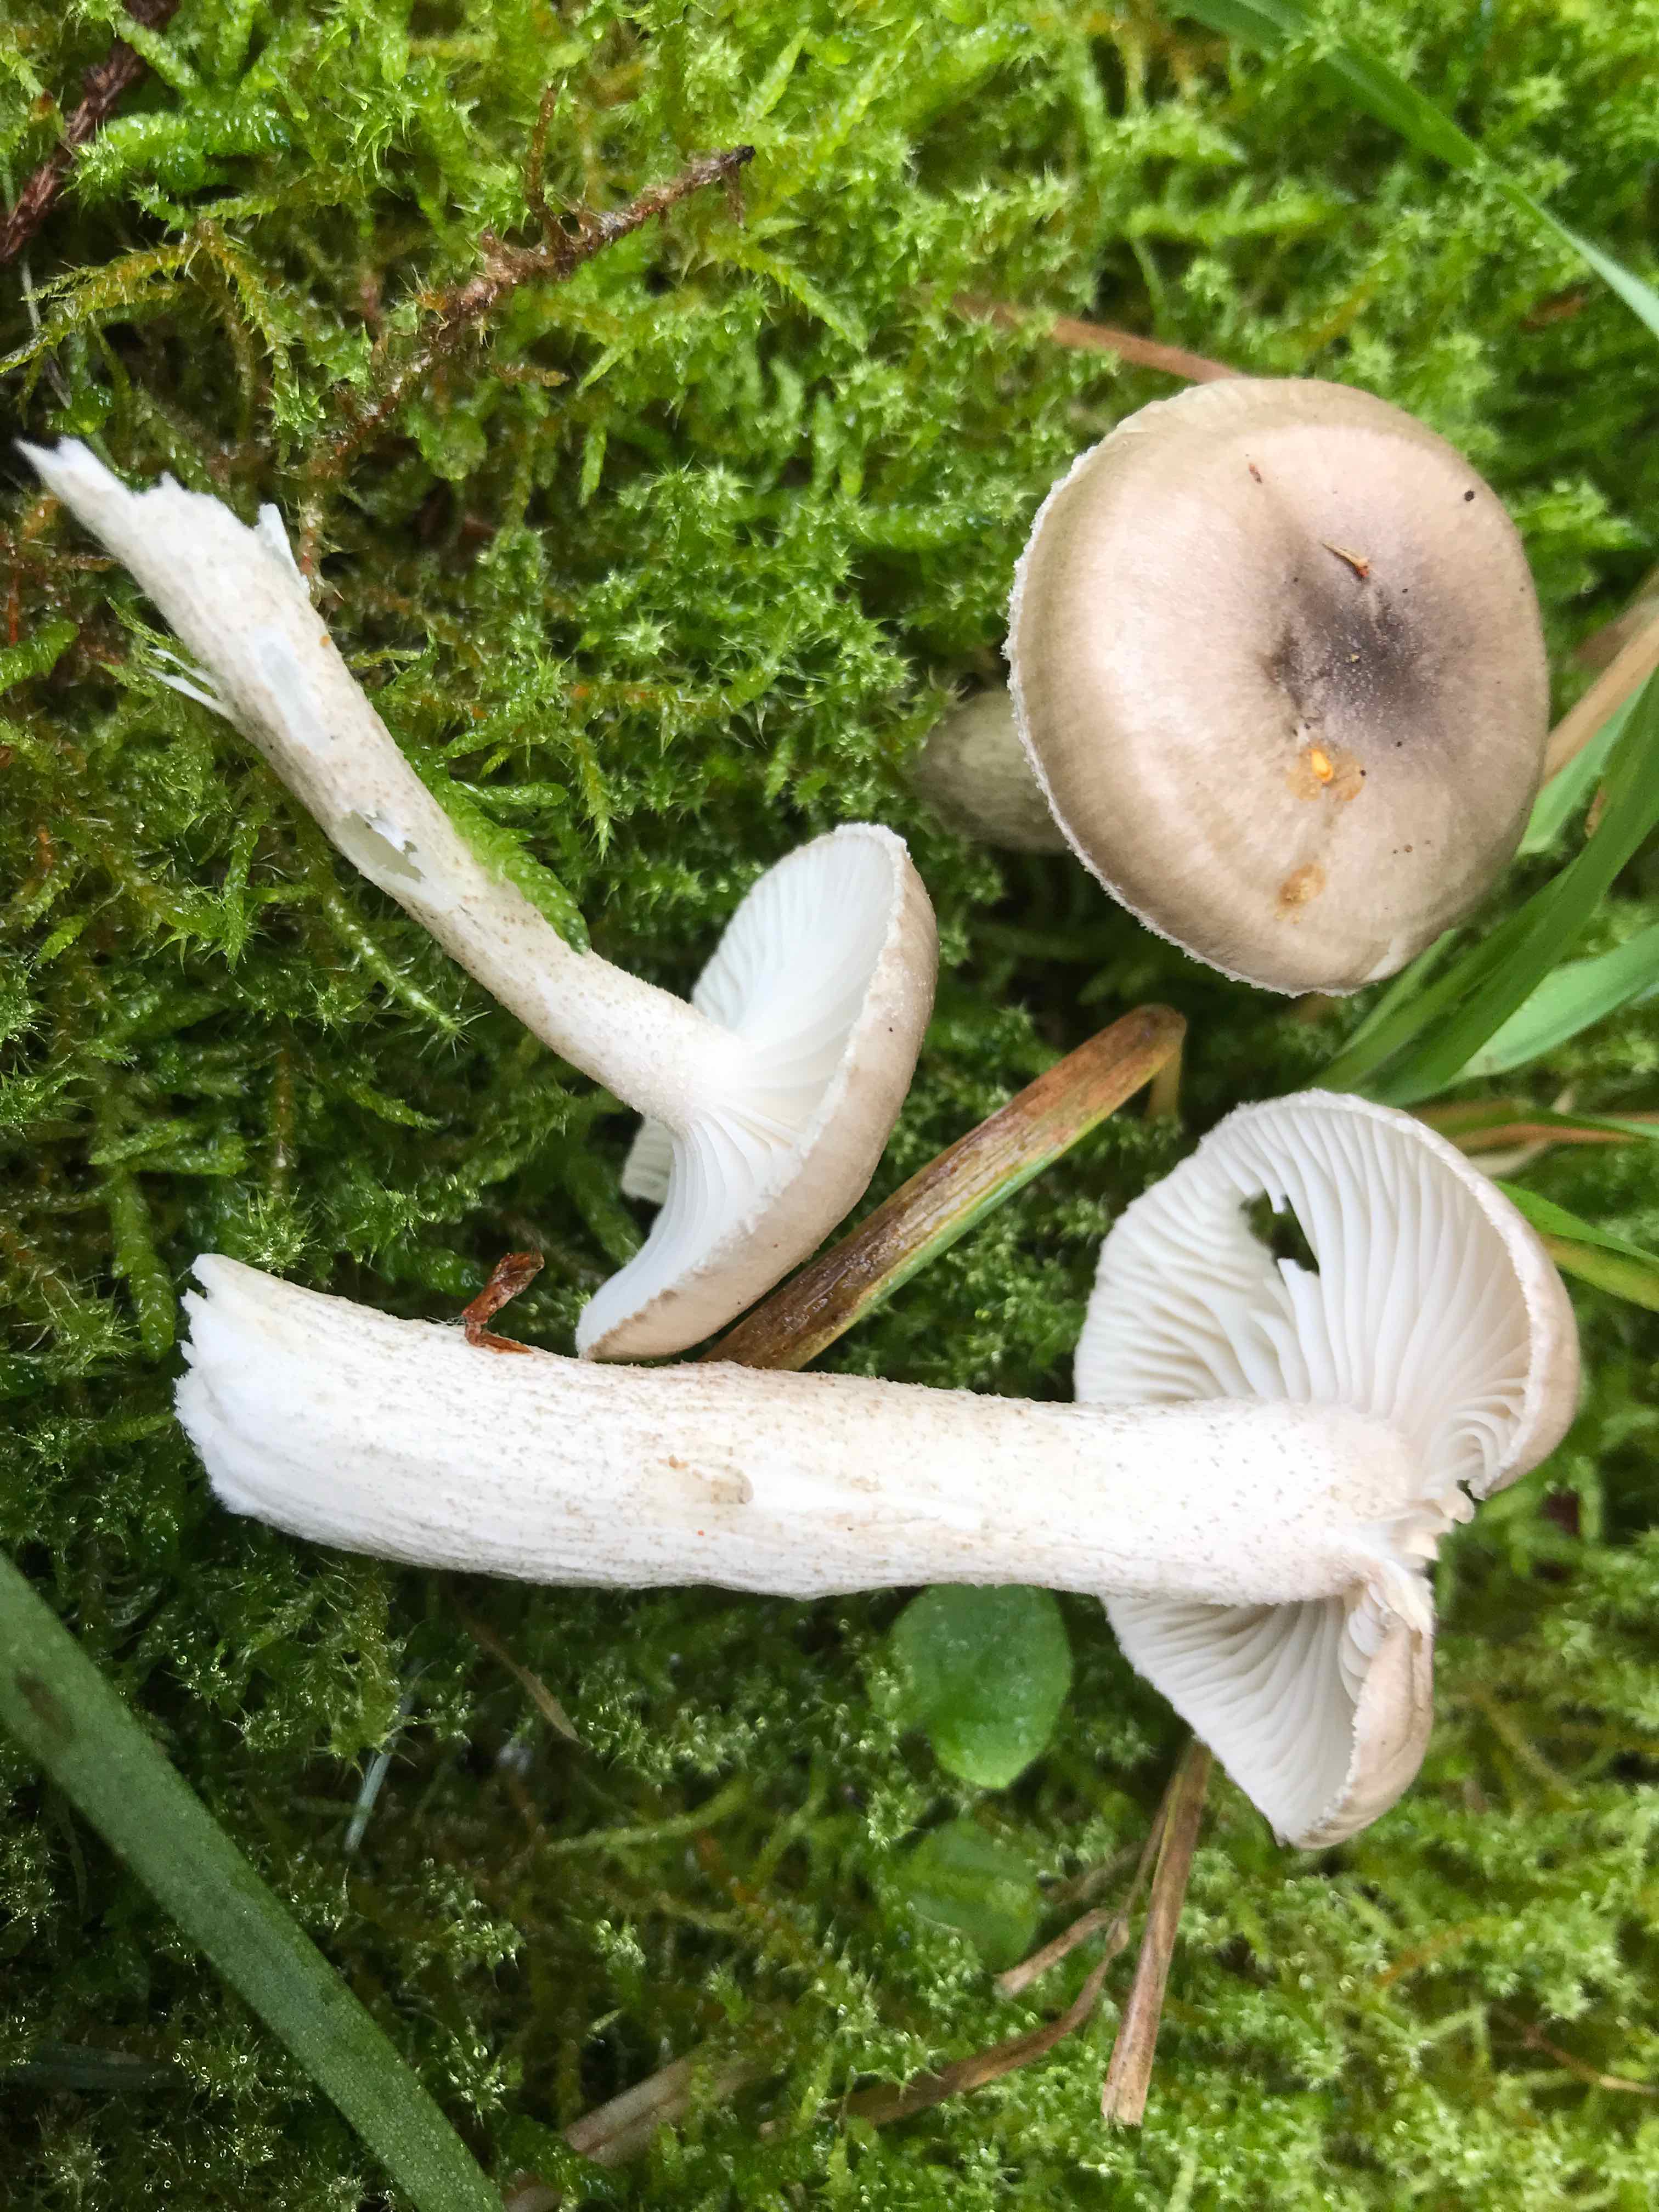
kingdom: Fungi
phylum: Basidiomycota
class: Agaricomycetes
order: Agaricales
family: Hygrophoraceae
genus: Hygrophorus
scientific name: Hygrophorus pustulatus
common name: mørkprikket sneglehat
